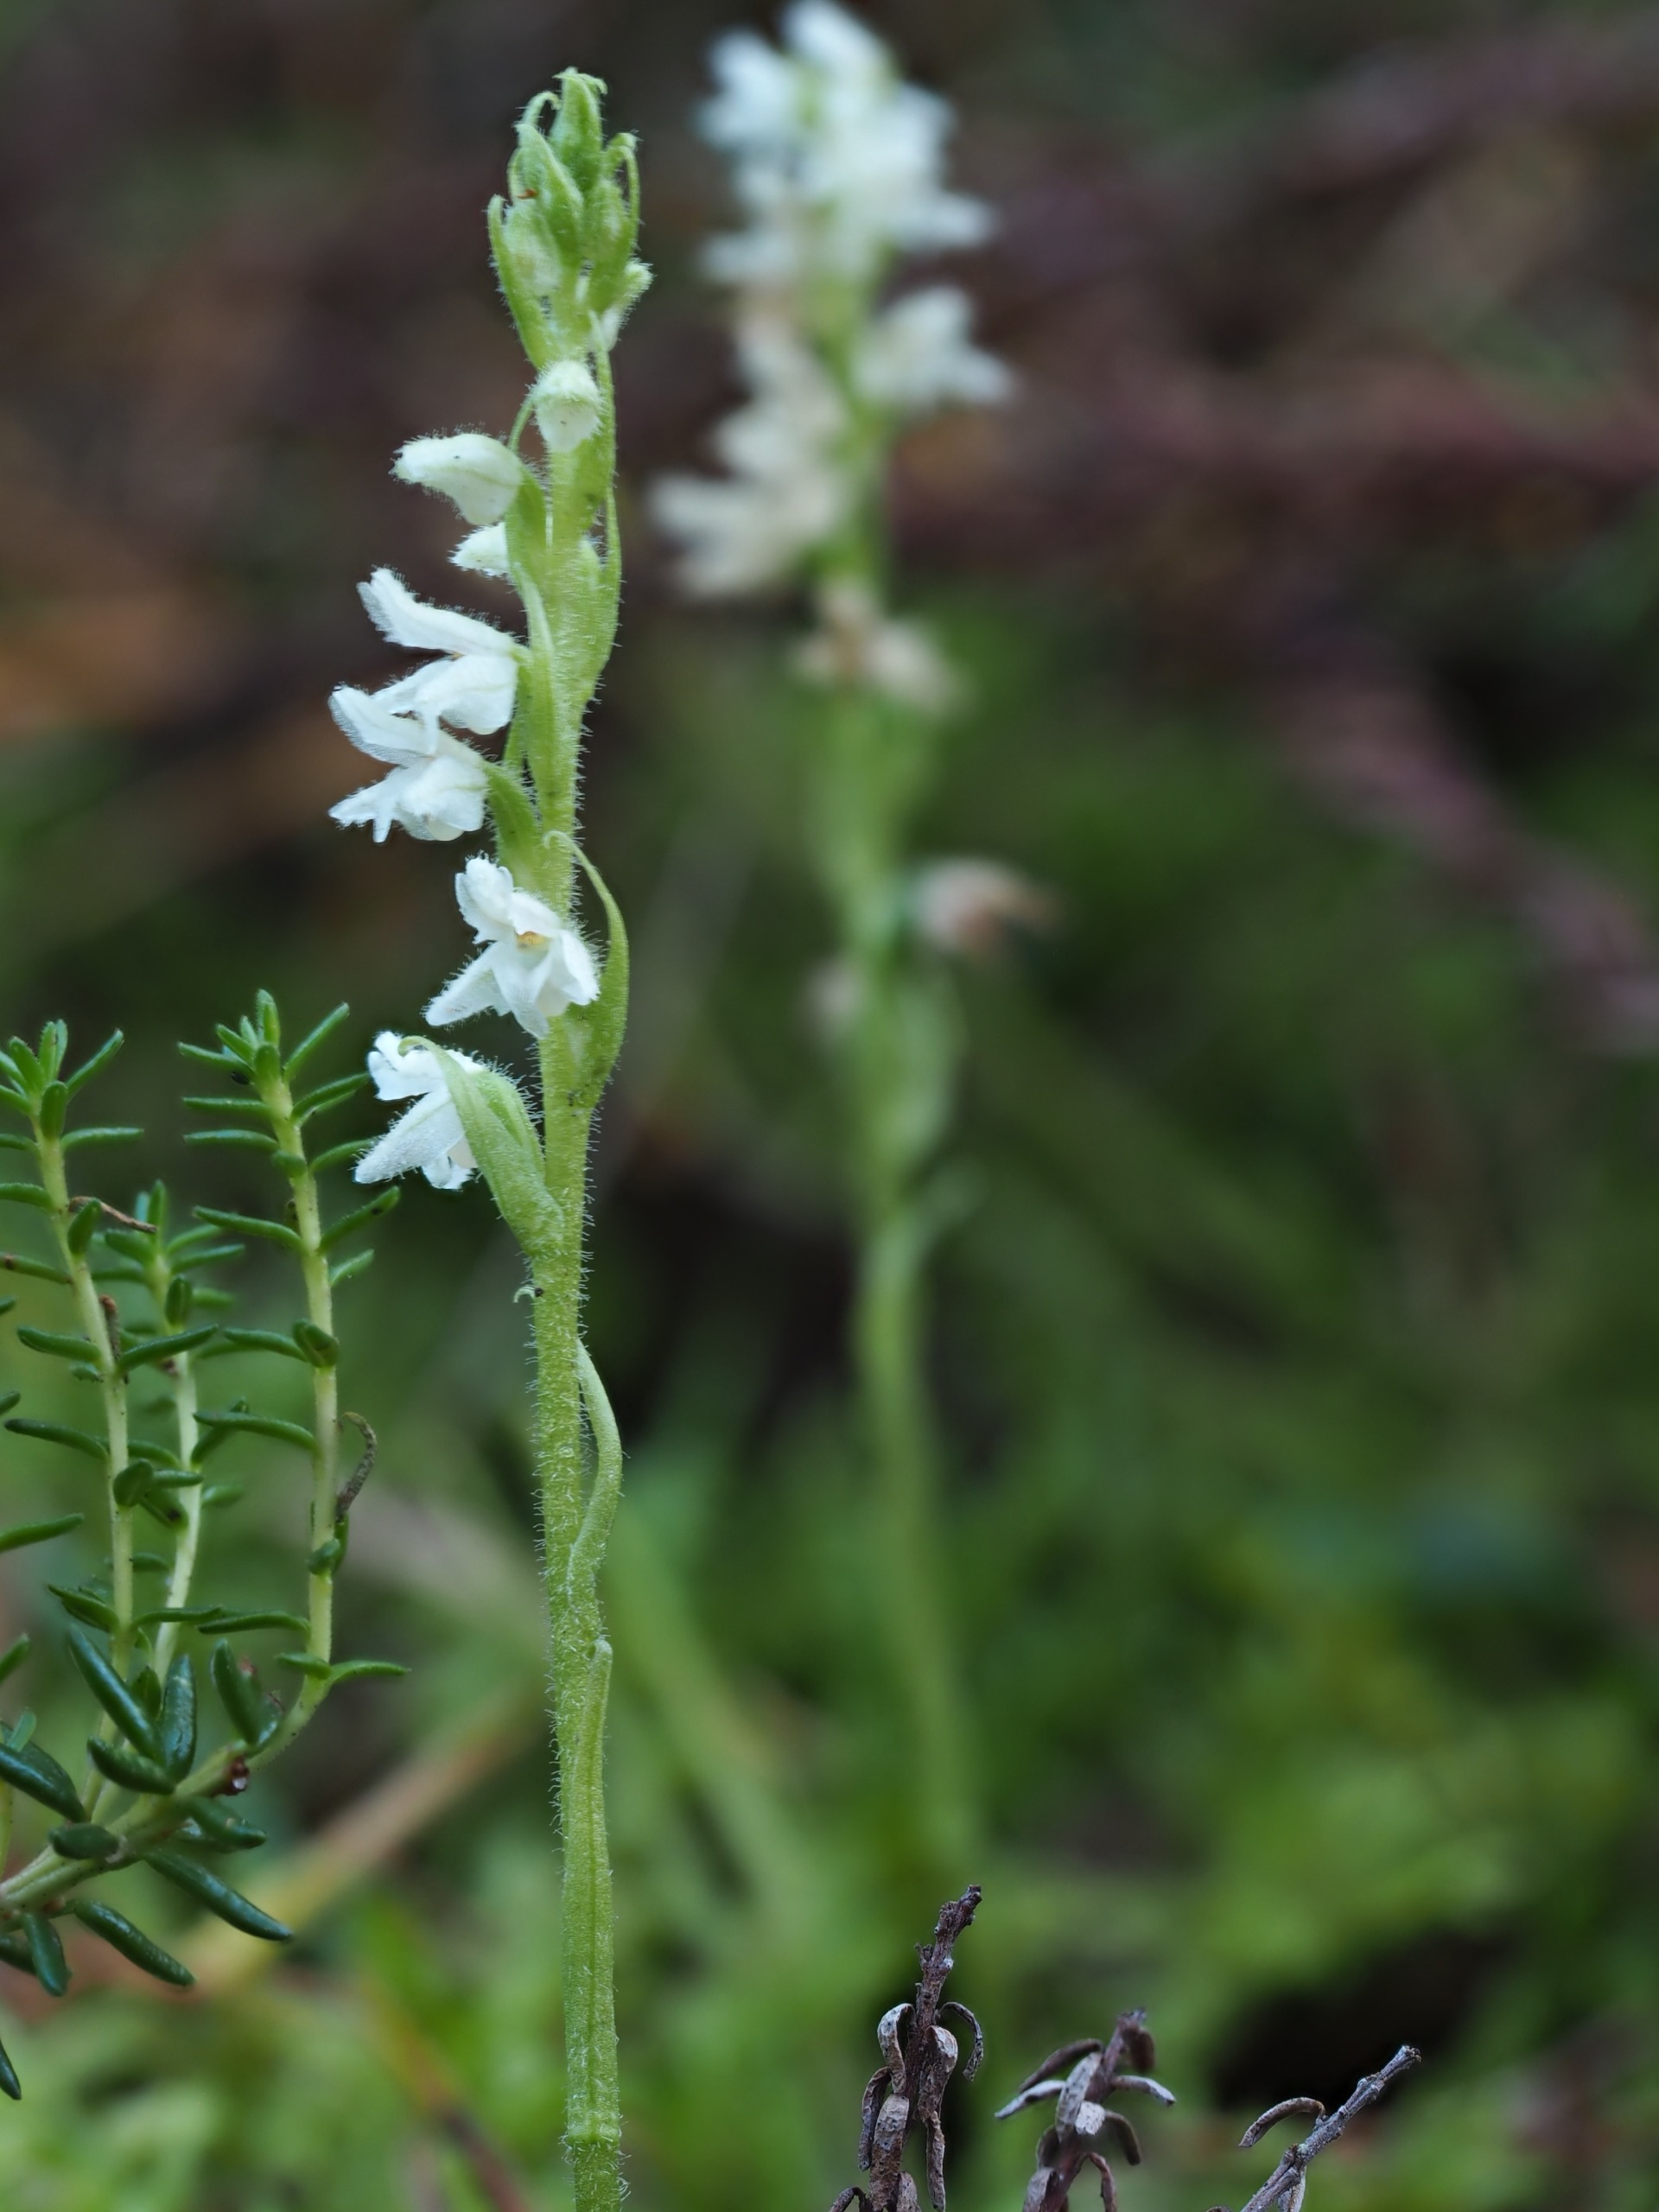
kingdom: Plantae
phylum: Tracheophyta
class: Liliopsida
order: Asparagales
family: Orchidaceae
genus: Goodyera
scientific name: Goodyera repens
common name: Knærod
